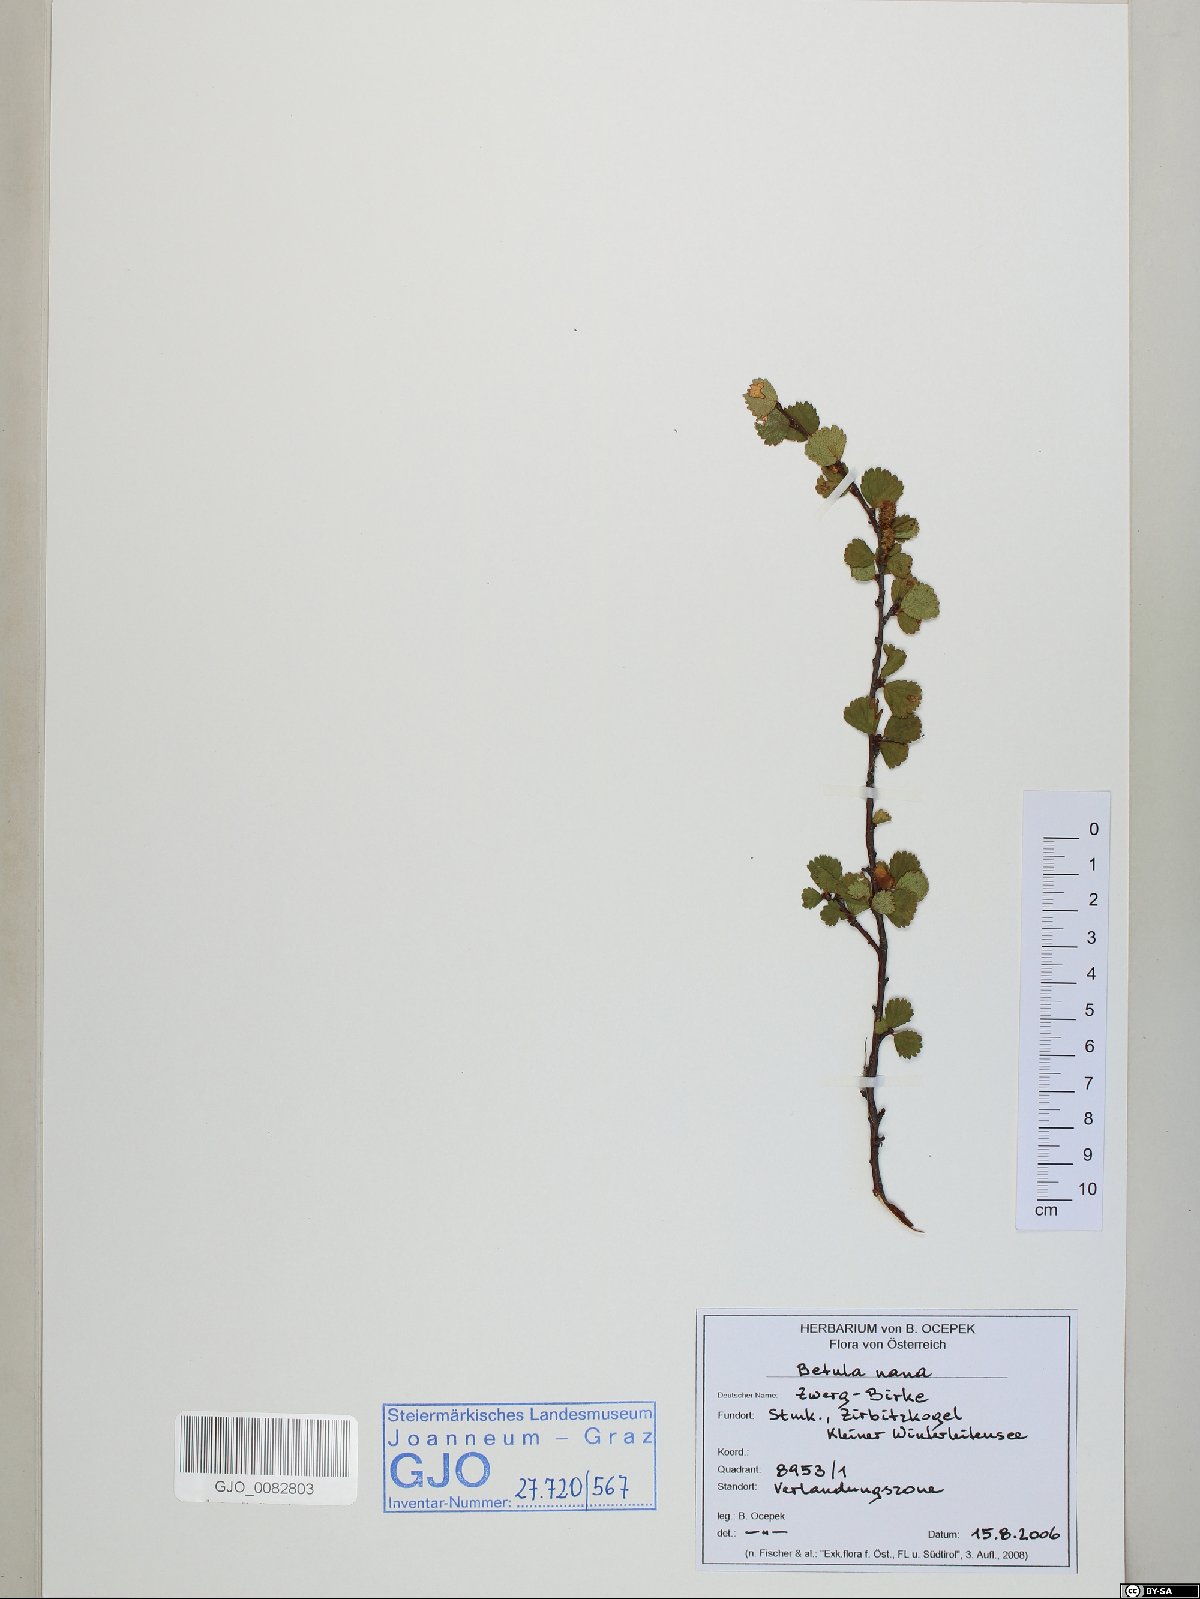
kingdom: Plantae
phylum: Tracheophyta
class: Magnoliopsida
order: Fagales
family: Betulaceae
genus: Betula
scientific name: Betula nana
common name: Arctic dwarf birch
